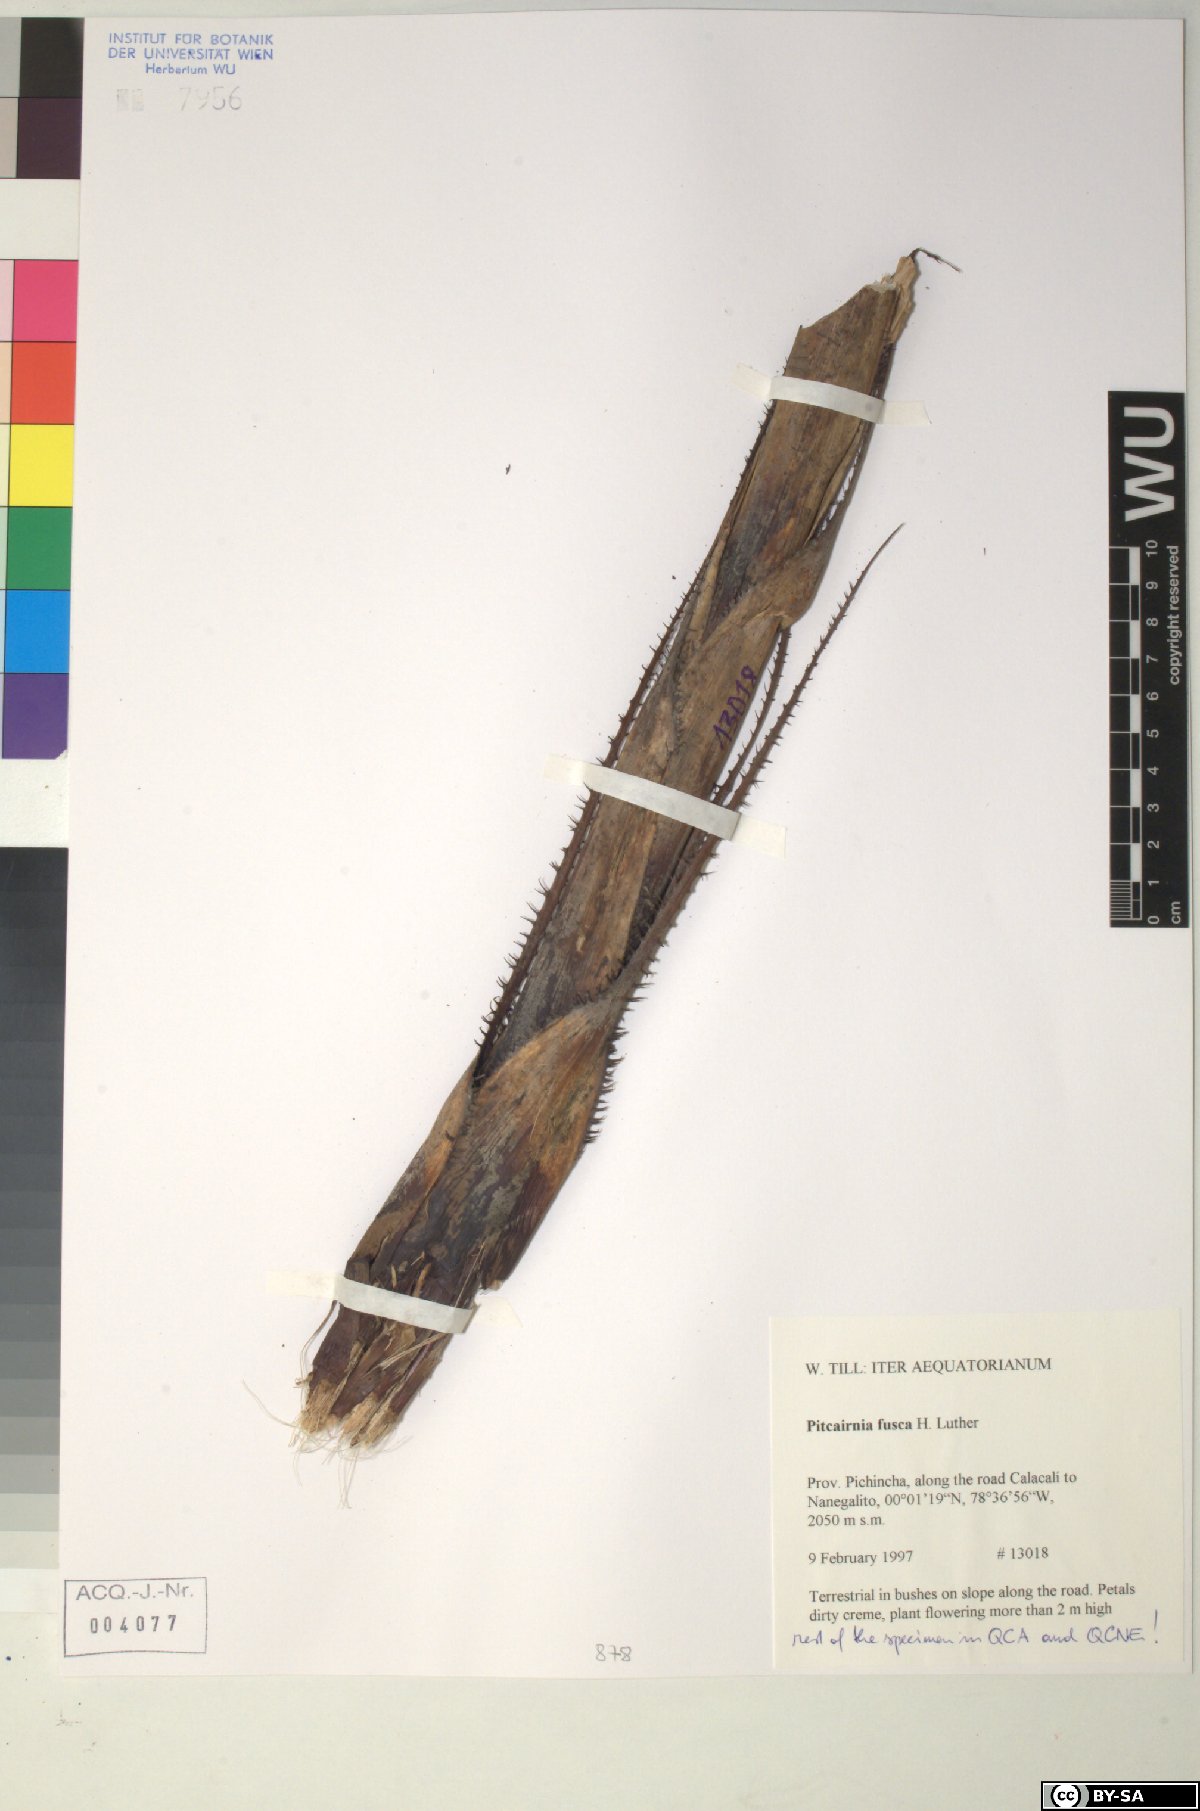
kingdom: Plantae
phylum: Tracheophyta
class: Liliopsida
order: Poales
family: Bromeliaceae
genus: Pitcairnia
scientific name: Pitcairnia fusca
